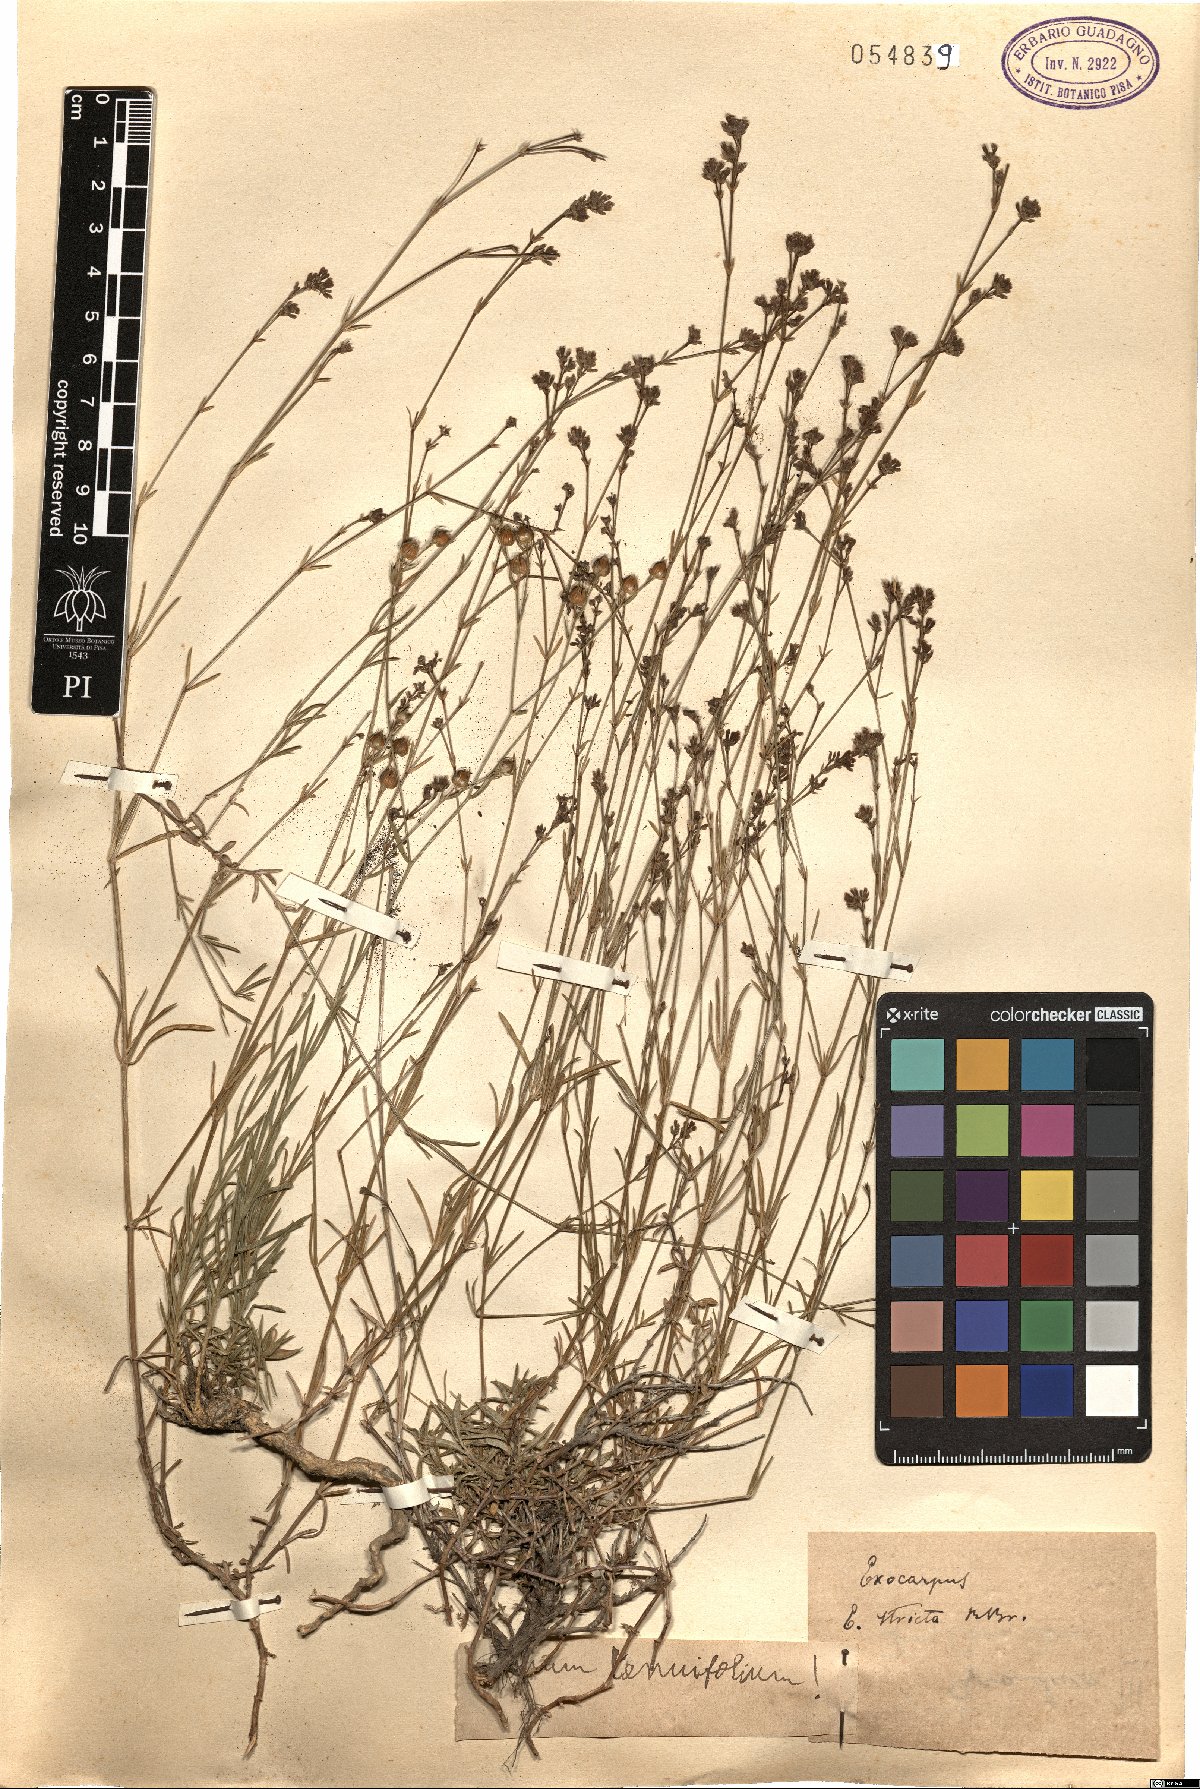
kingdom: Plantae
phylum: Tracheophyta
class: Magnoliopsida
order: Malpighiales
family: Linaceae
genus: Linum
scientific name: Linum tenuifolium
